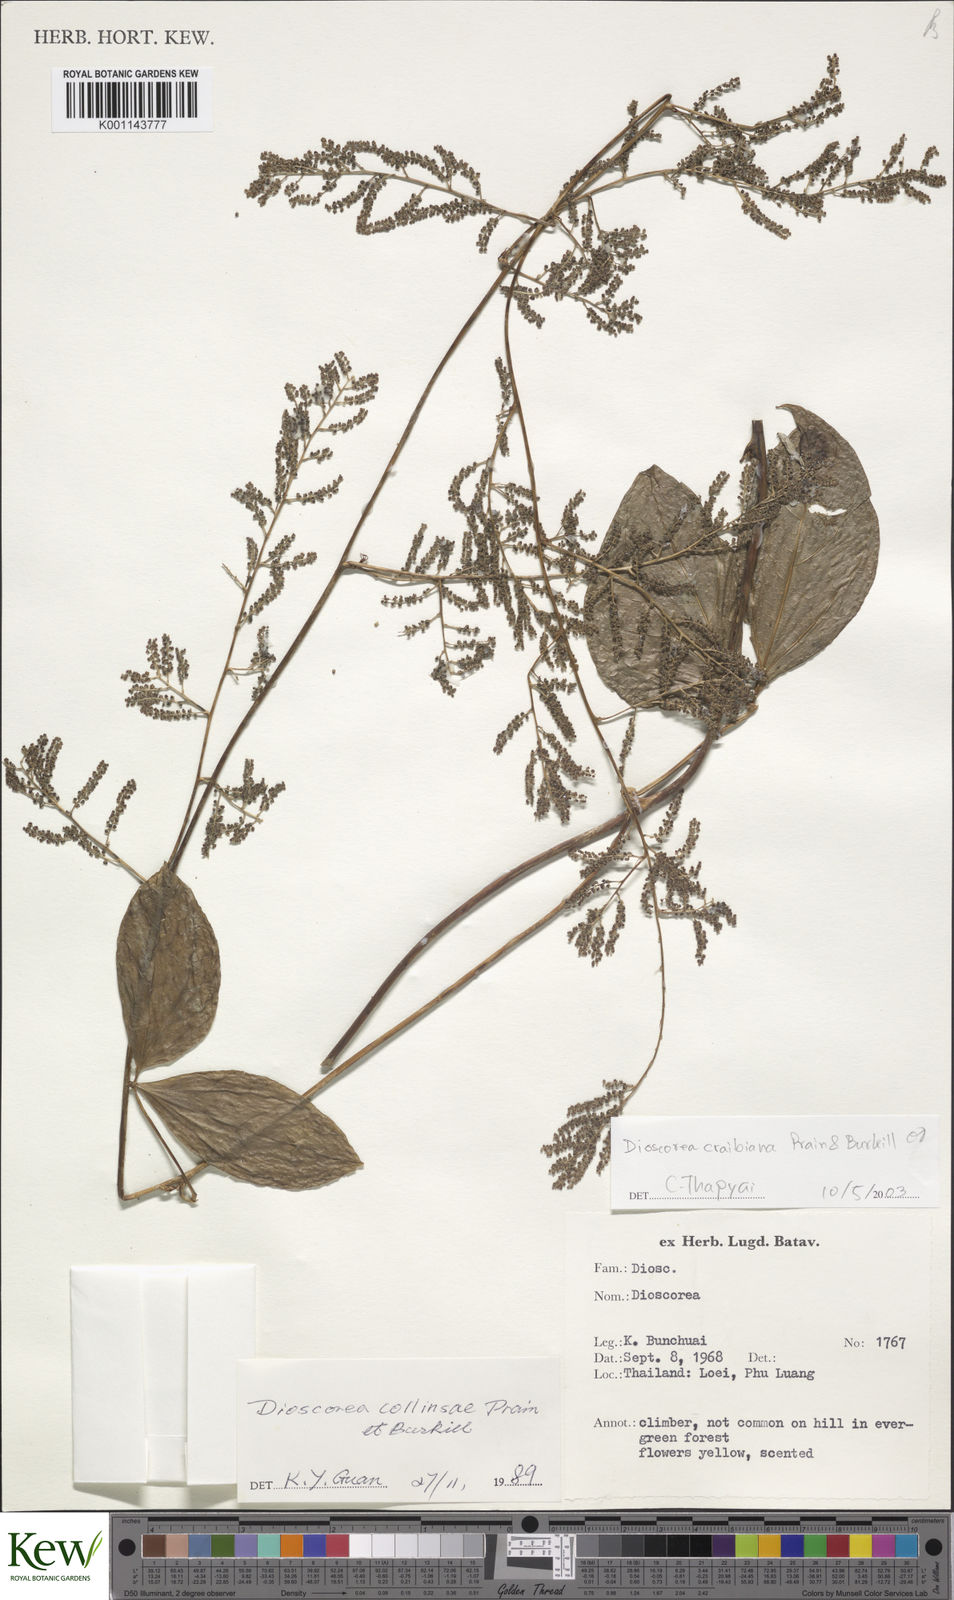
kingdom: Plantae
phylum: Tracheophyta
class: Liliopsida
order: Dioscoreales
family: Dioscoreaceae
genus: Dioscorea
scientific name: Dioscorea craibiana
